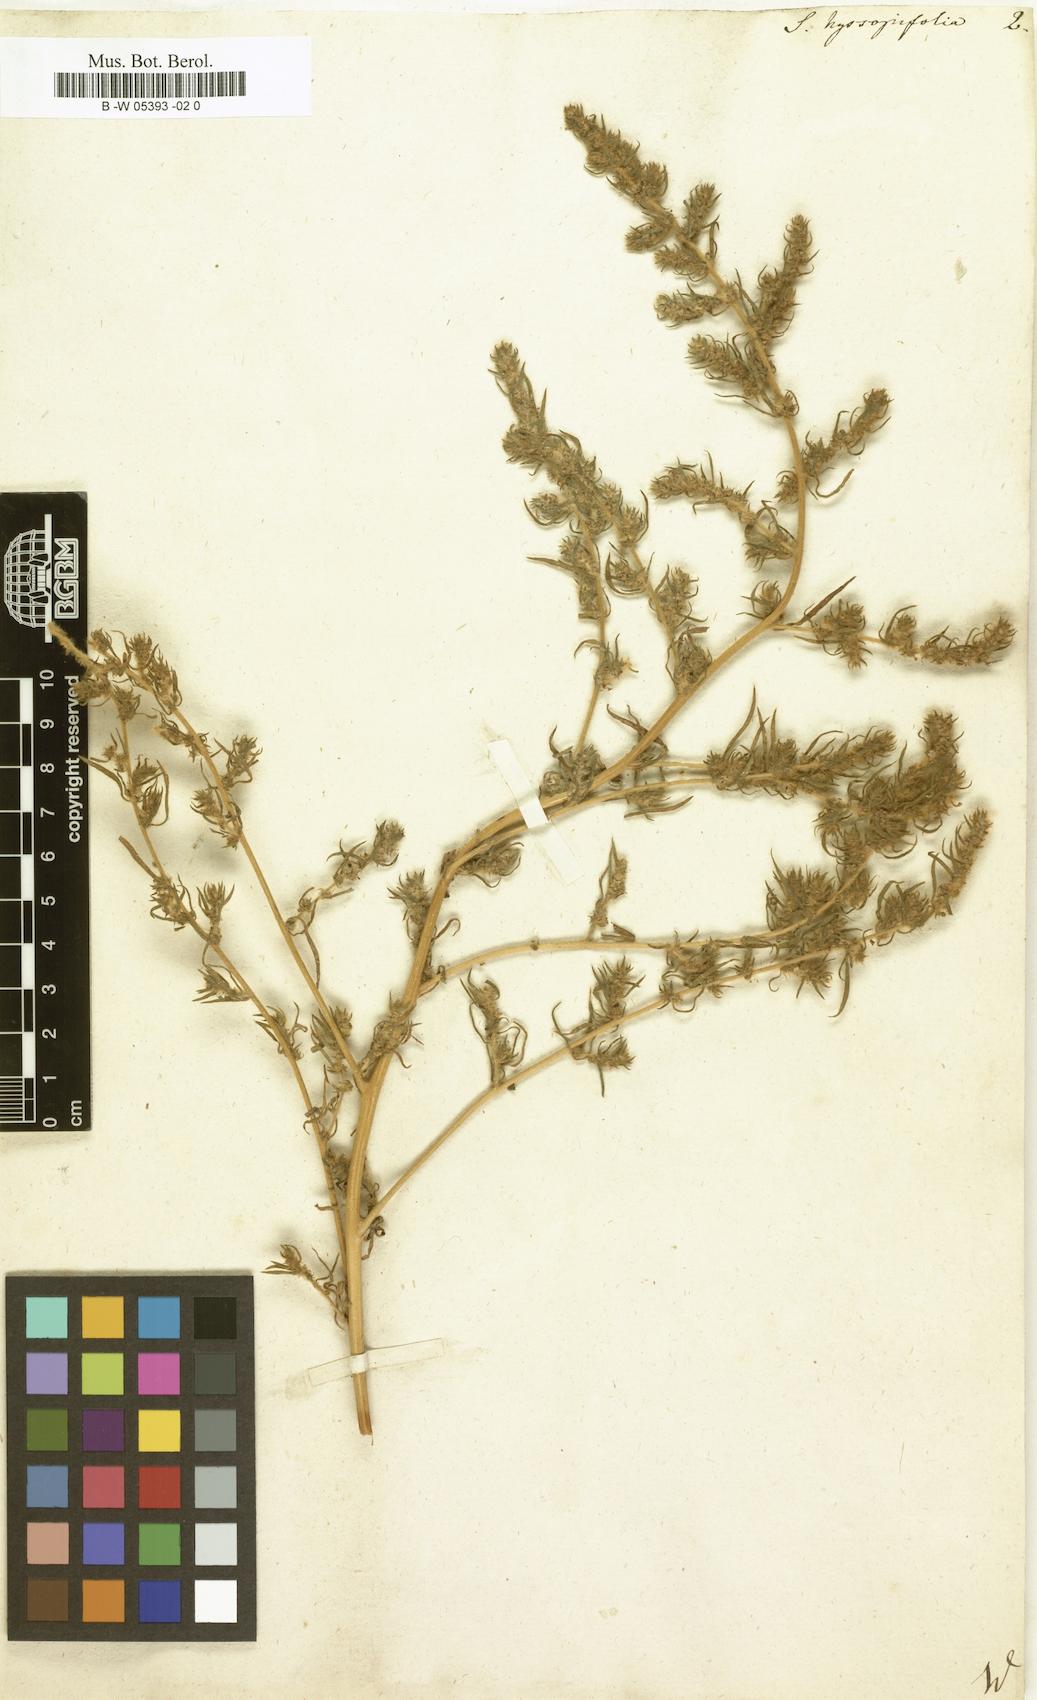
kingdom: Plantae
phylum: Tracheophyta
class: Magnoliopsida
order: Caryophyllales
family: Amaranthaceae
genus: Bassia
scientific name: Bassia hyssopifolia
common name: Fivehorn smotherweed
